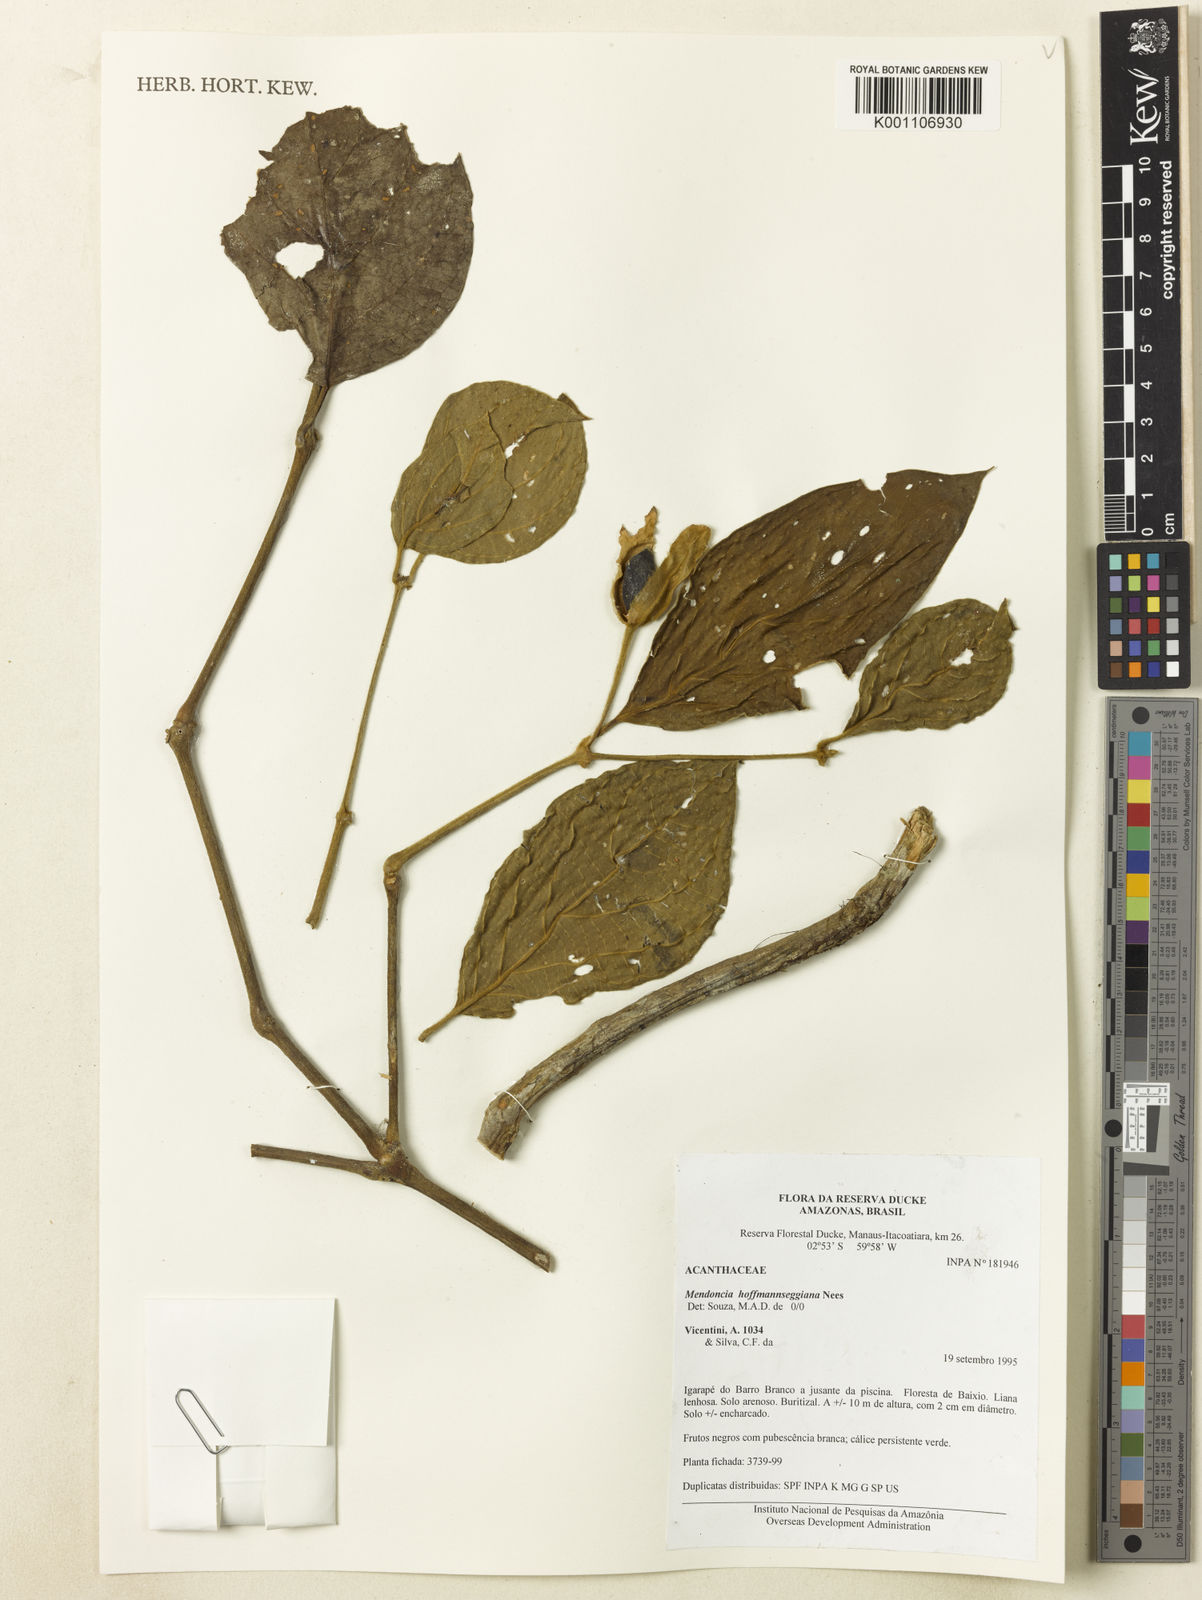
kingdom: Plantae
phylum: Tracheophyta
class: Magnoliopsida
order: Lamiales
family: Acanthaceae
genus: Mendoncia
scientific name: Mendoncia hoffmannseggiana
